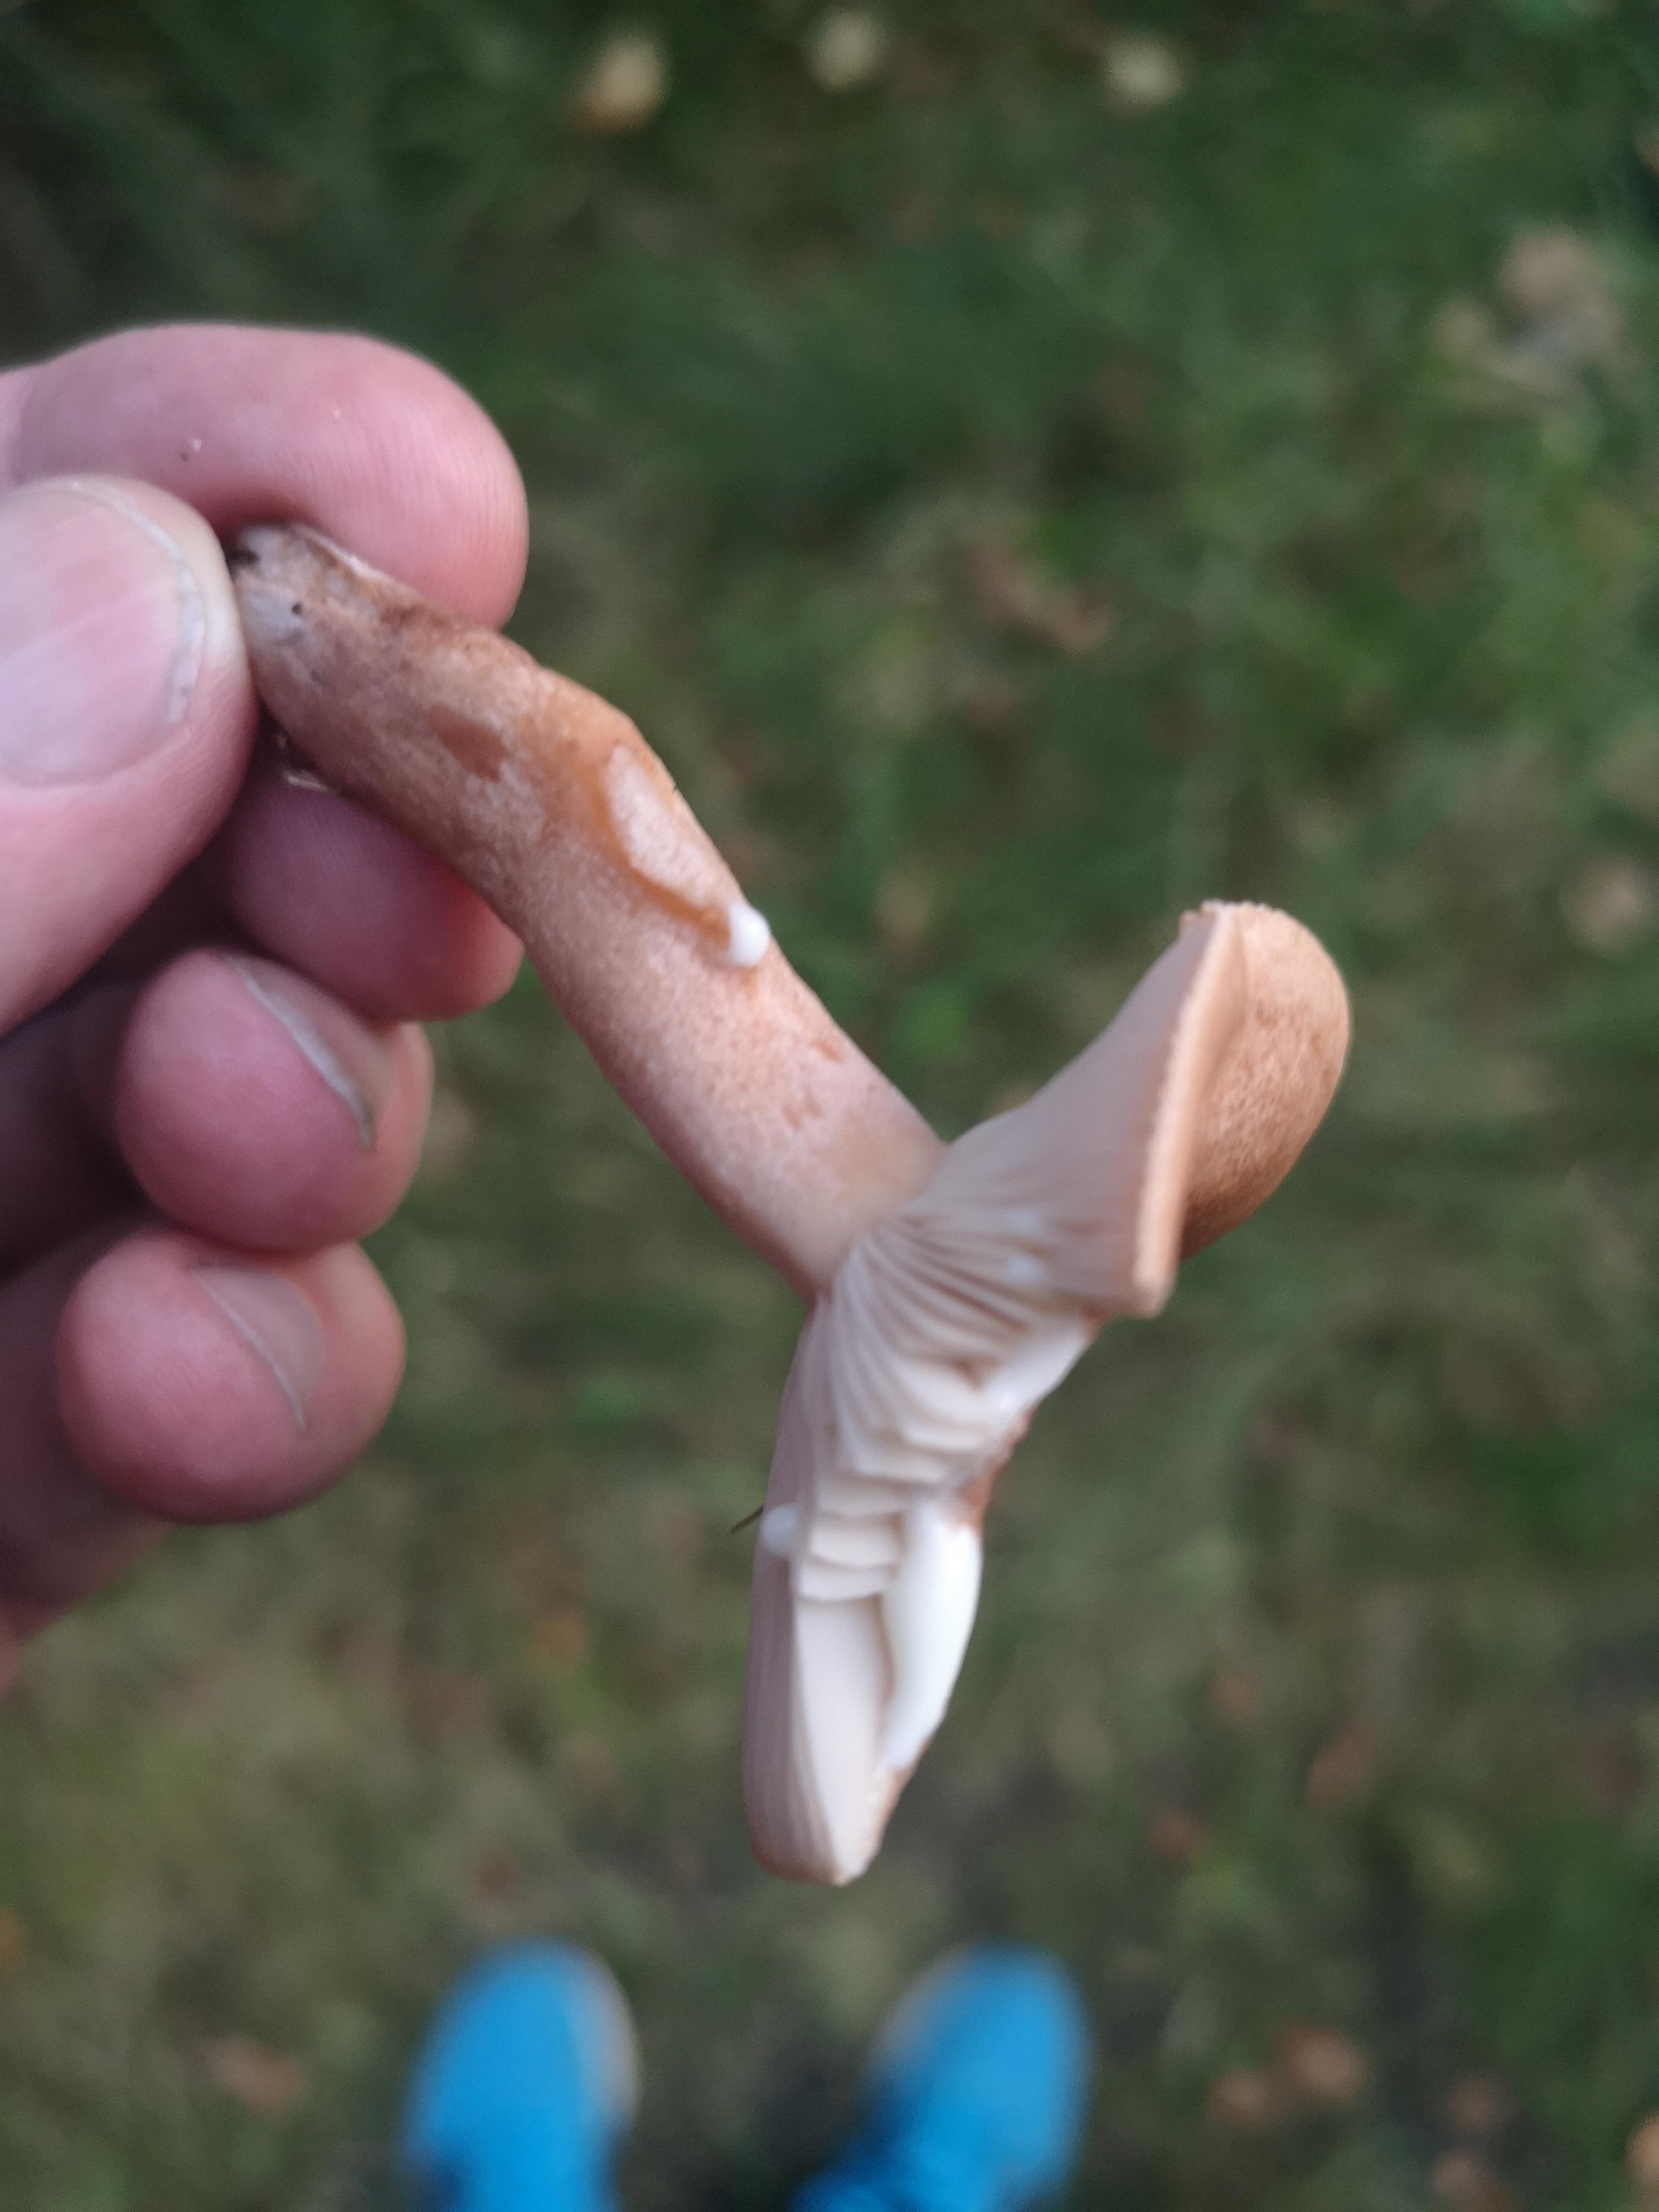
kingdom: Fungi
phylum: Basidiomycota
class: Agaricomycetes
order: Russulales
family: Russulaceae
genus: Lactarius
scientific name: Lactarius quietus
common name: ege-mælkehat
